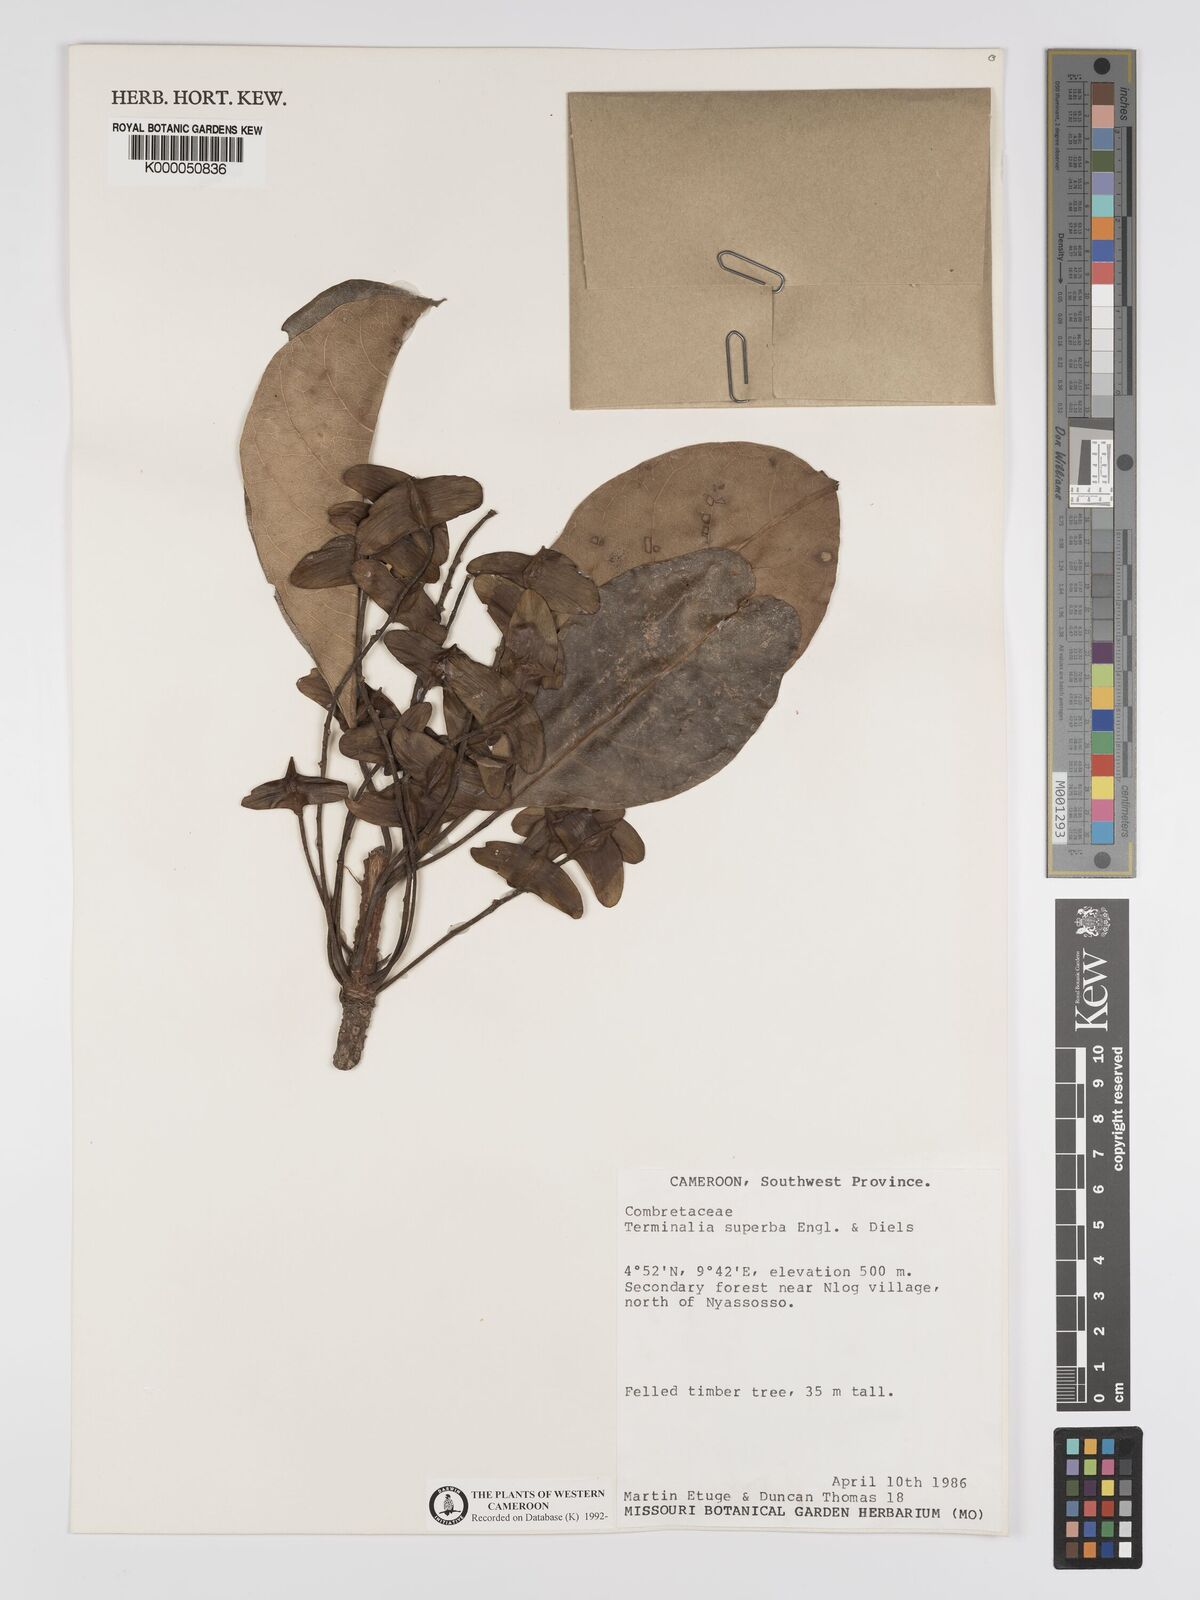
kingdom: Plantae
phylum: Tracheophyta
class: Magnoliopsida
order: Myrtales
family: Combretaceae
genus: Terminalia
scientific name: Terminalia superba
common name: White afara
